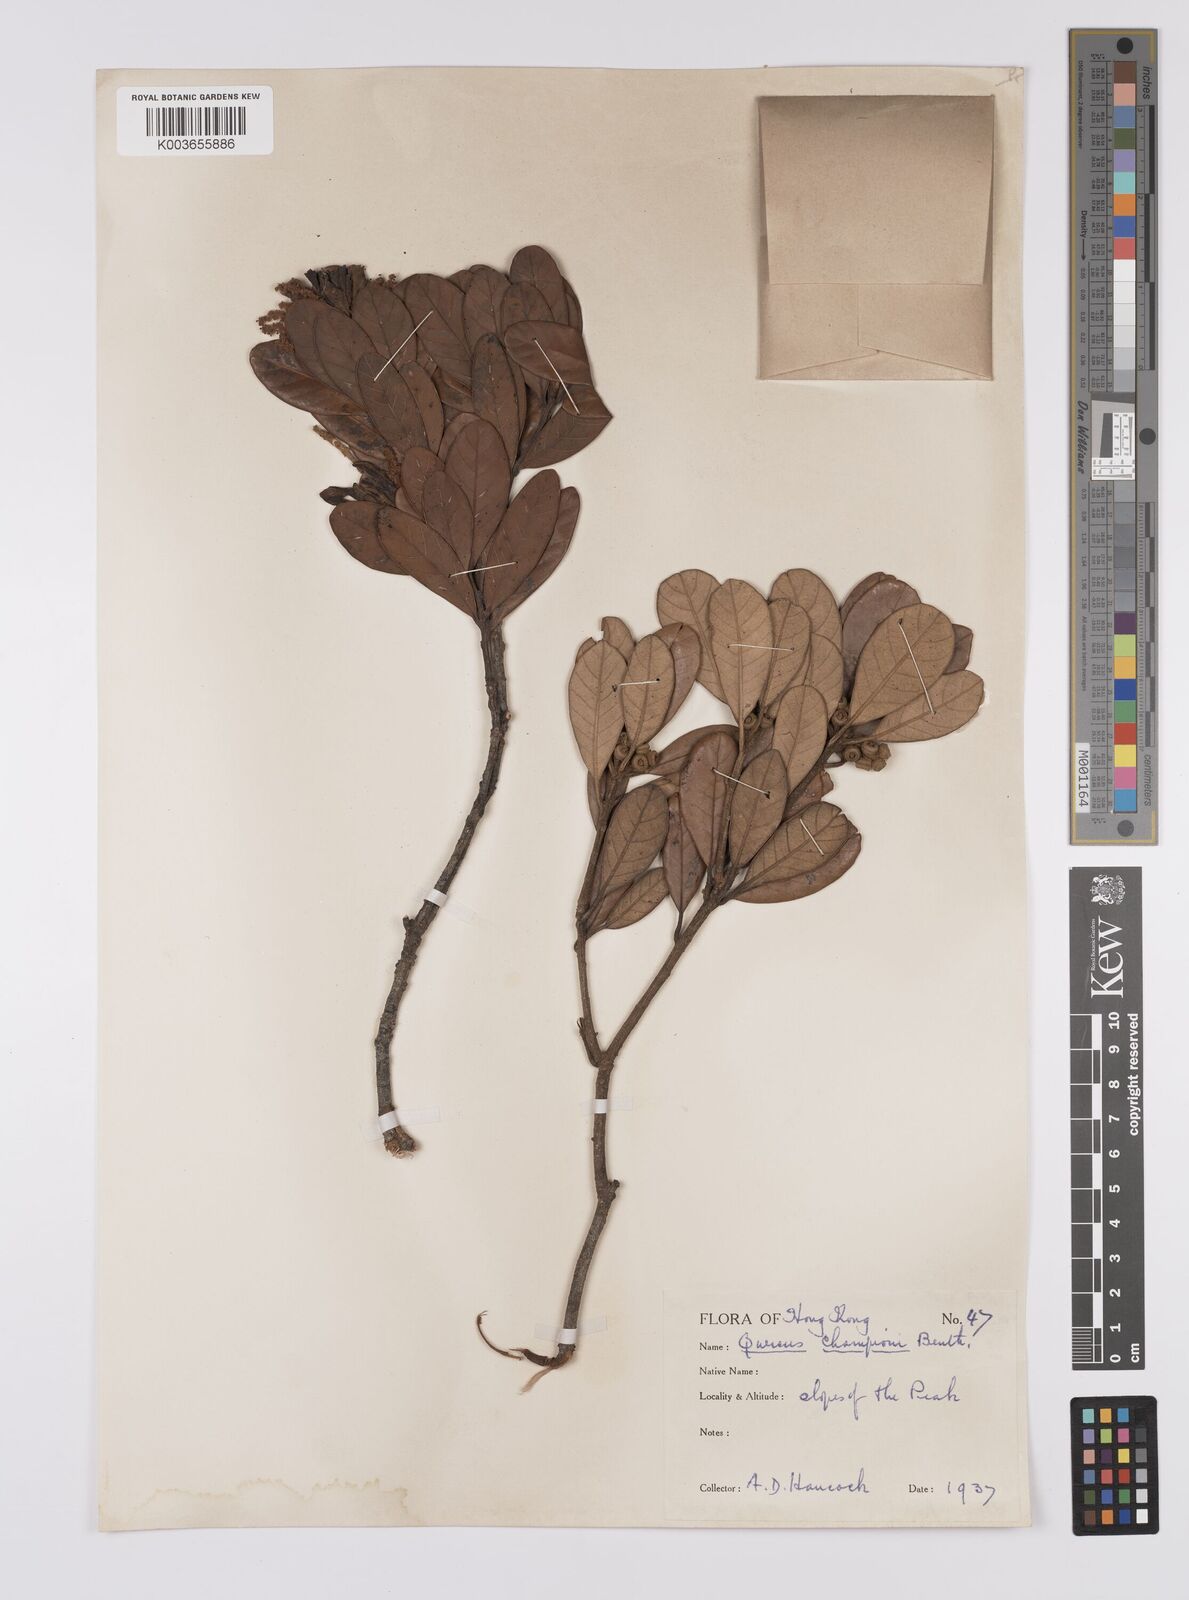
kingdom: Plantae
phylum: Tracheophyta
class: Magnoliopsida
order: Fagales
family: Fagaceae
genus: Quercus
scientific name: Quercus championii
